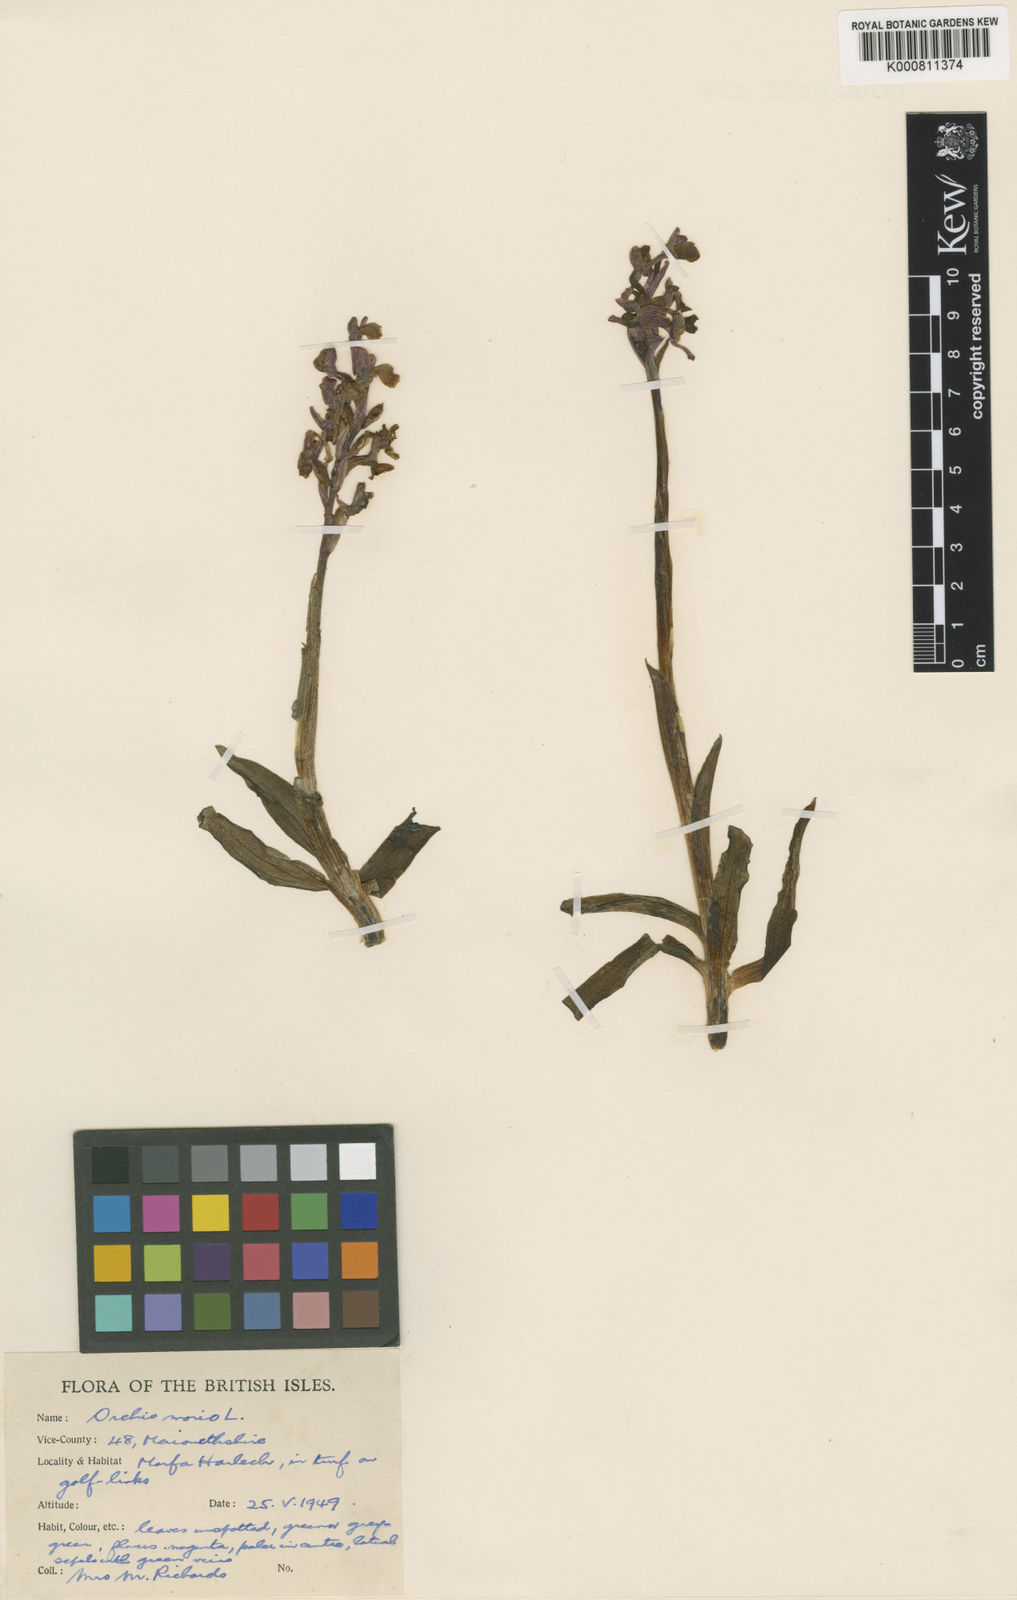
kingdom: Plantae
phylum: Tracheophyta
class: Liliopsida
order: Asparagales
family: Orchidaceae
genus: Anacamptis
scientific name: Anacamptis morio
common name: Green-winged orchid
